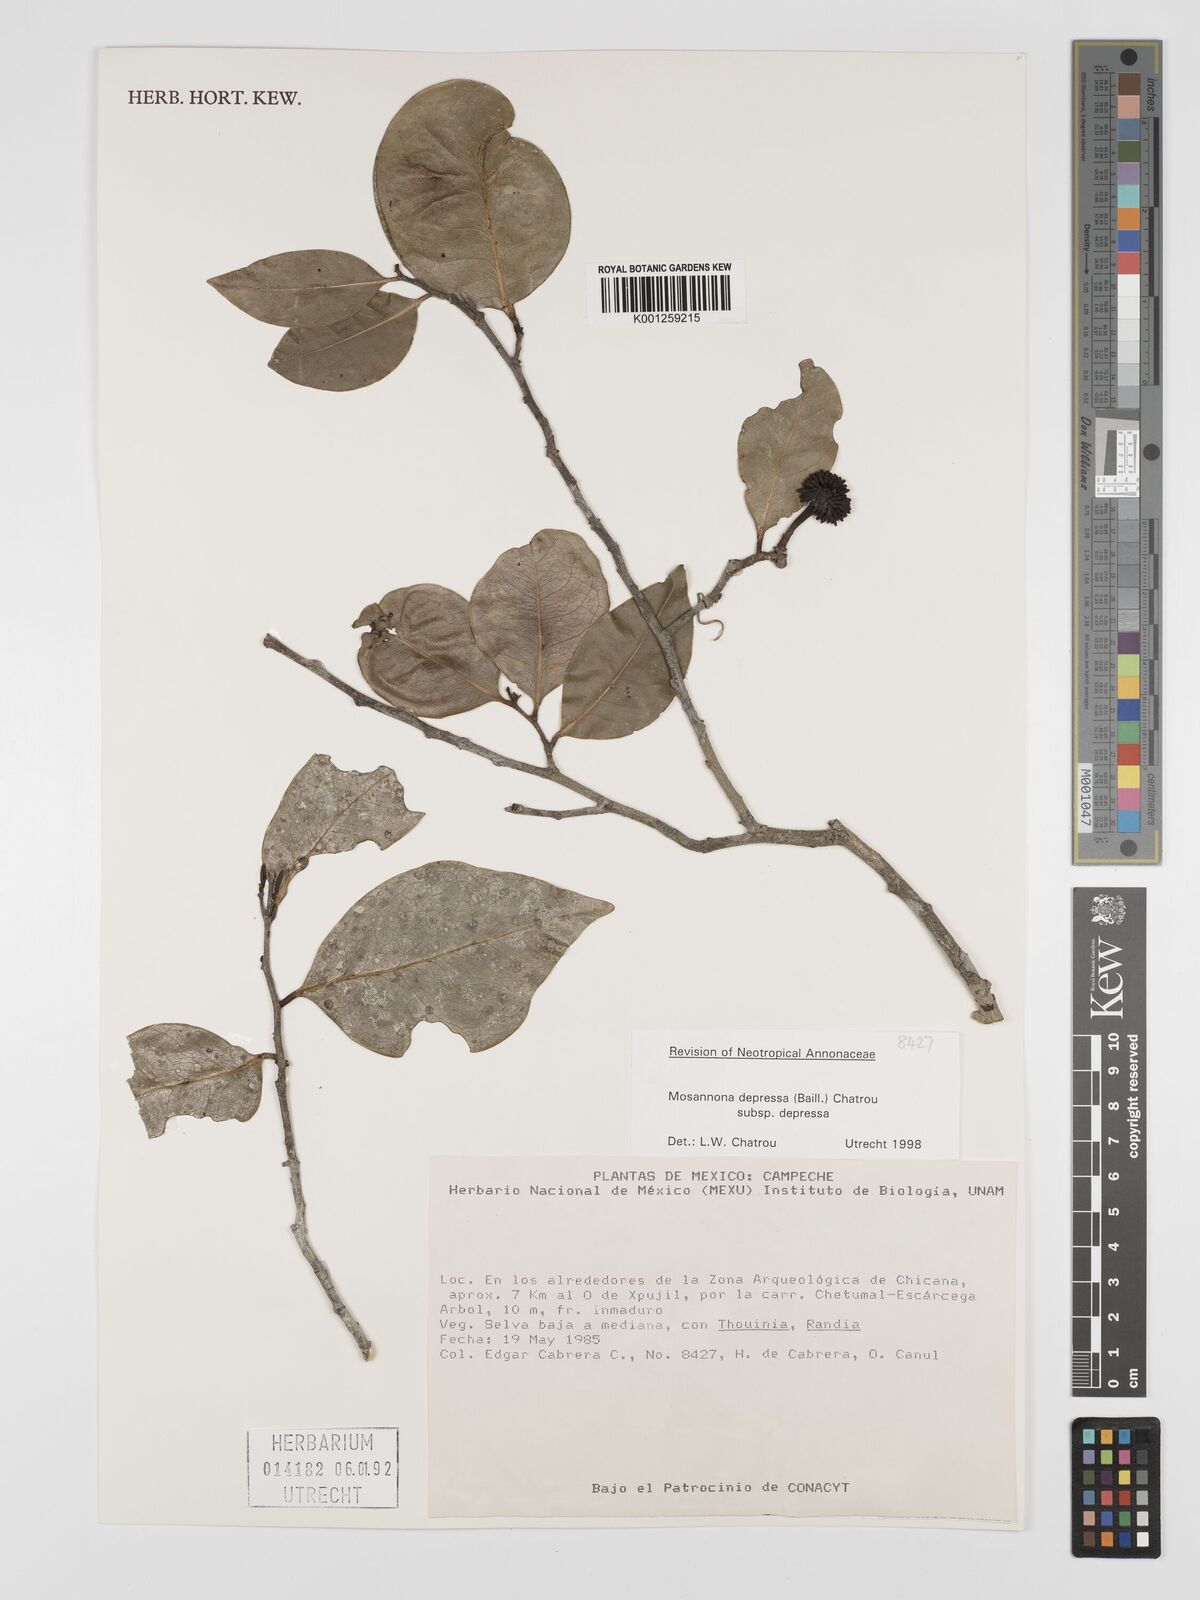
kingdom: Plantae
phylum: Tracheophyta
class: Magnoliopsida
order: Magnoliales
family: Annonaceae
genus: Mosannona
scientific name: Mosannona depressa
